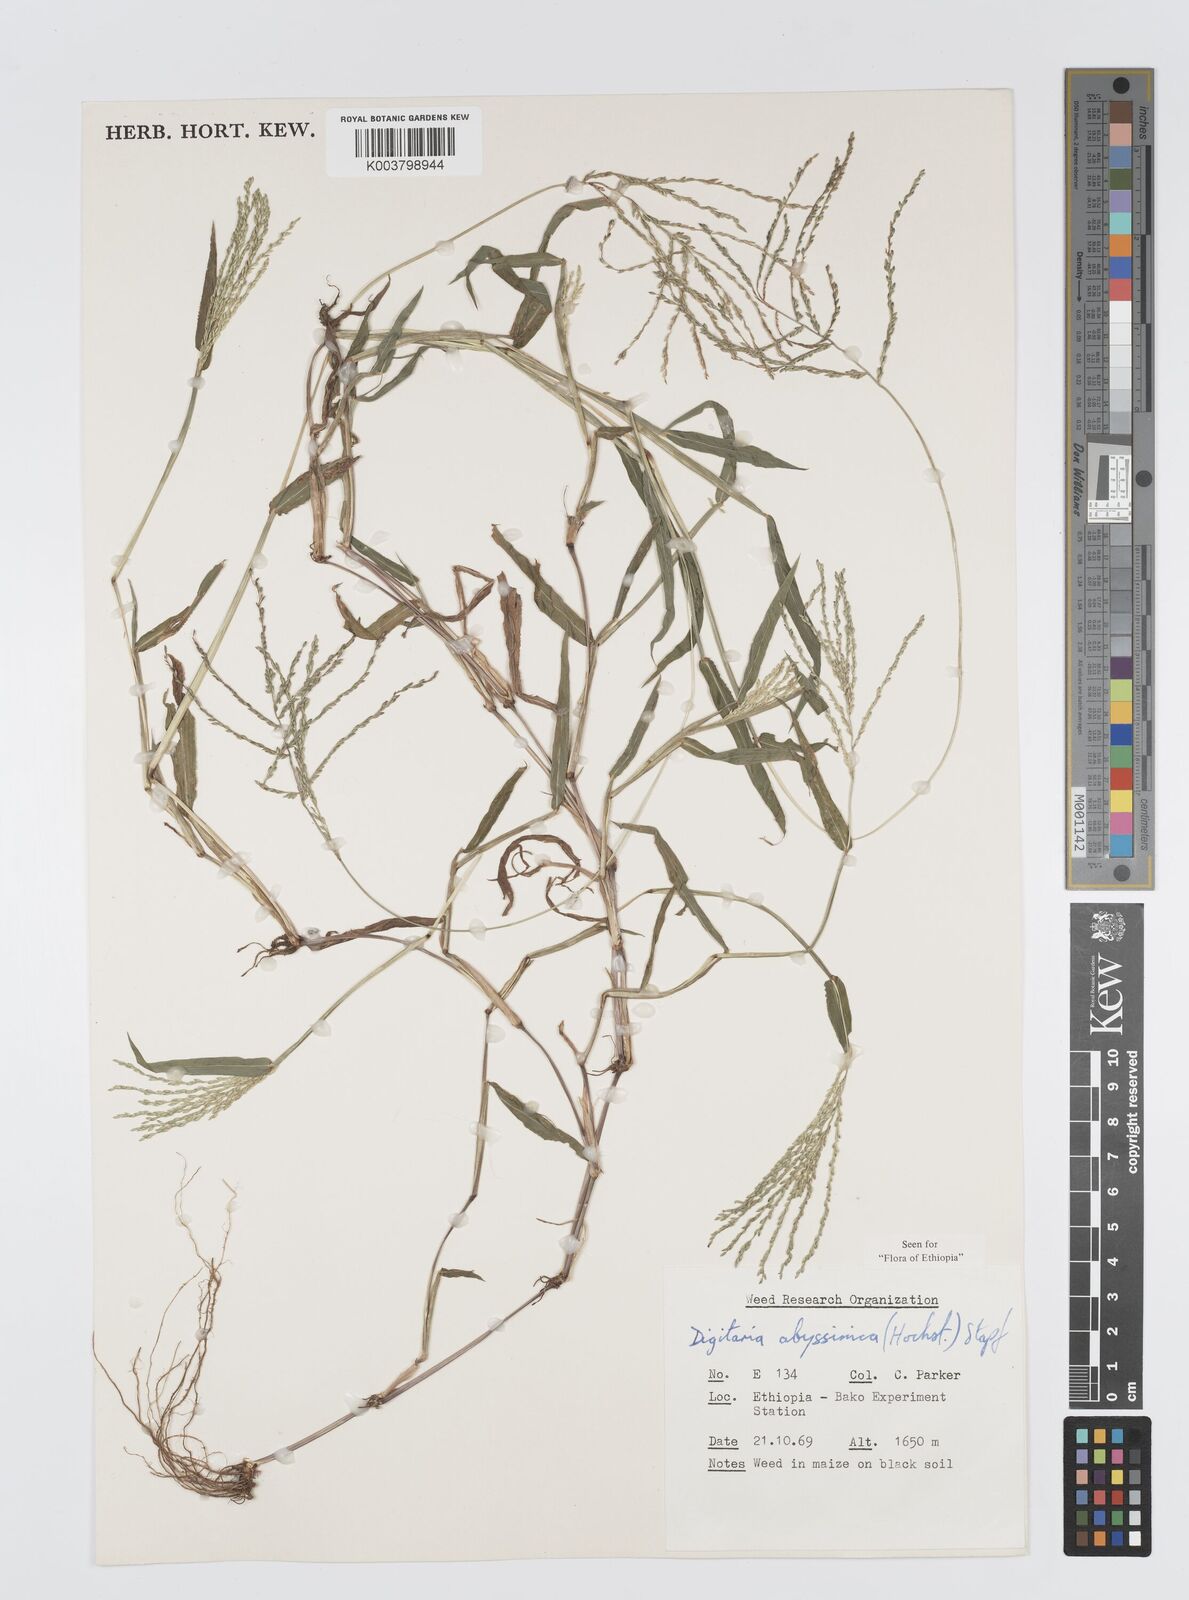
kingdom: Plantae
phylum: Tracheophyta
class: Liliopsida
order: Poales
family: Poaceae
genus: Digitaria
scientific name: Digitaria abyssinica
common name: African couchgrass
